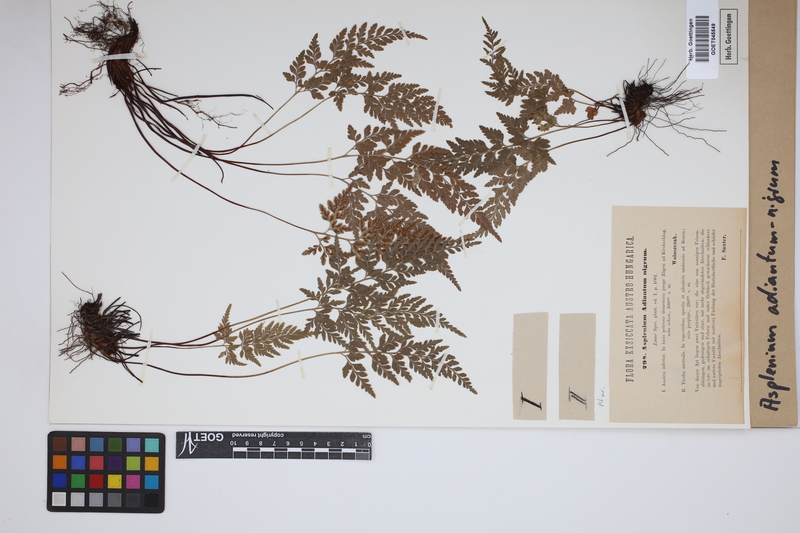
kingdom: Plantae
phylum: Tracheophyta
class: Polypodiopsida
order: Polypodiales
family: Aspleniaceae
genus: Asplenium
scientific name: Asplenium adiantum-nigrum
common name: Black spleenwort
